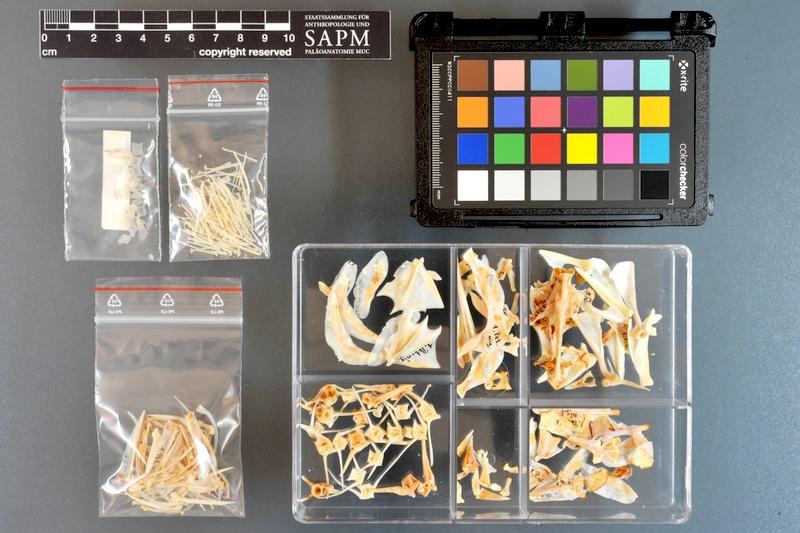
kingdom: Animalia
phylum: Chordata
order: Perciformes
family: Serranidae
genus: Cephalopholis
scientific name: Cephalopholis nigri
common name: Niger hind
